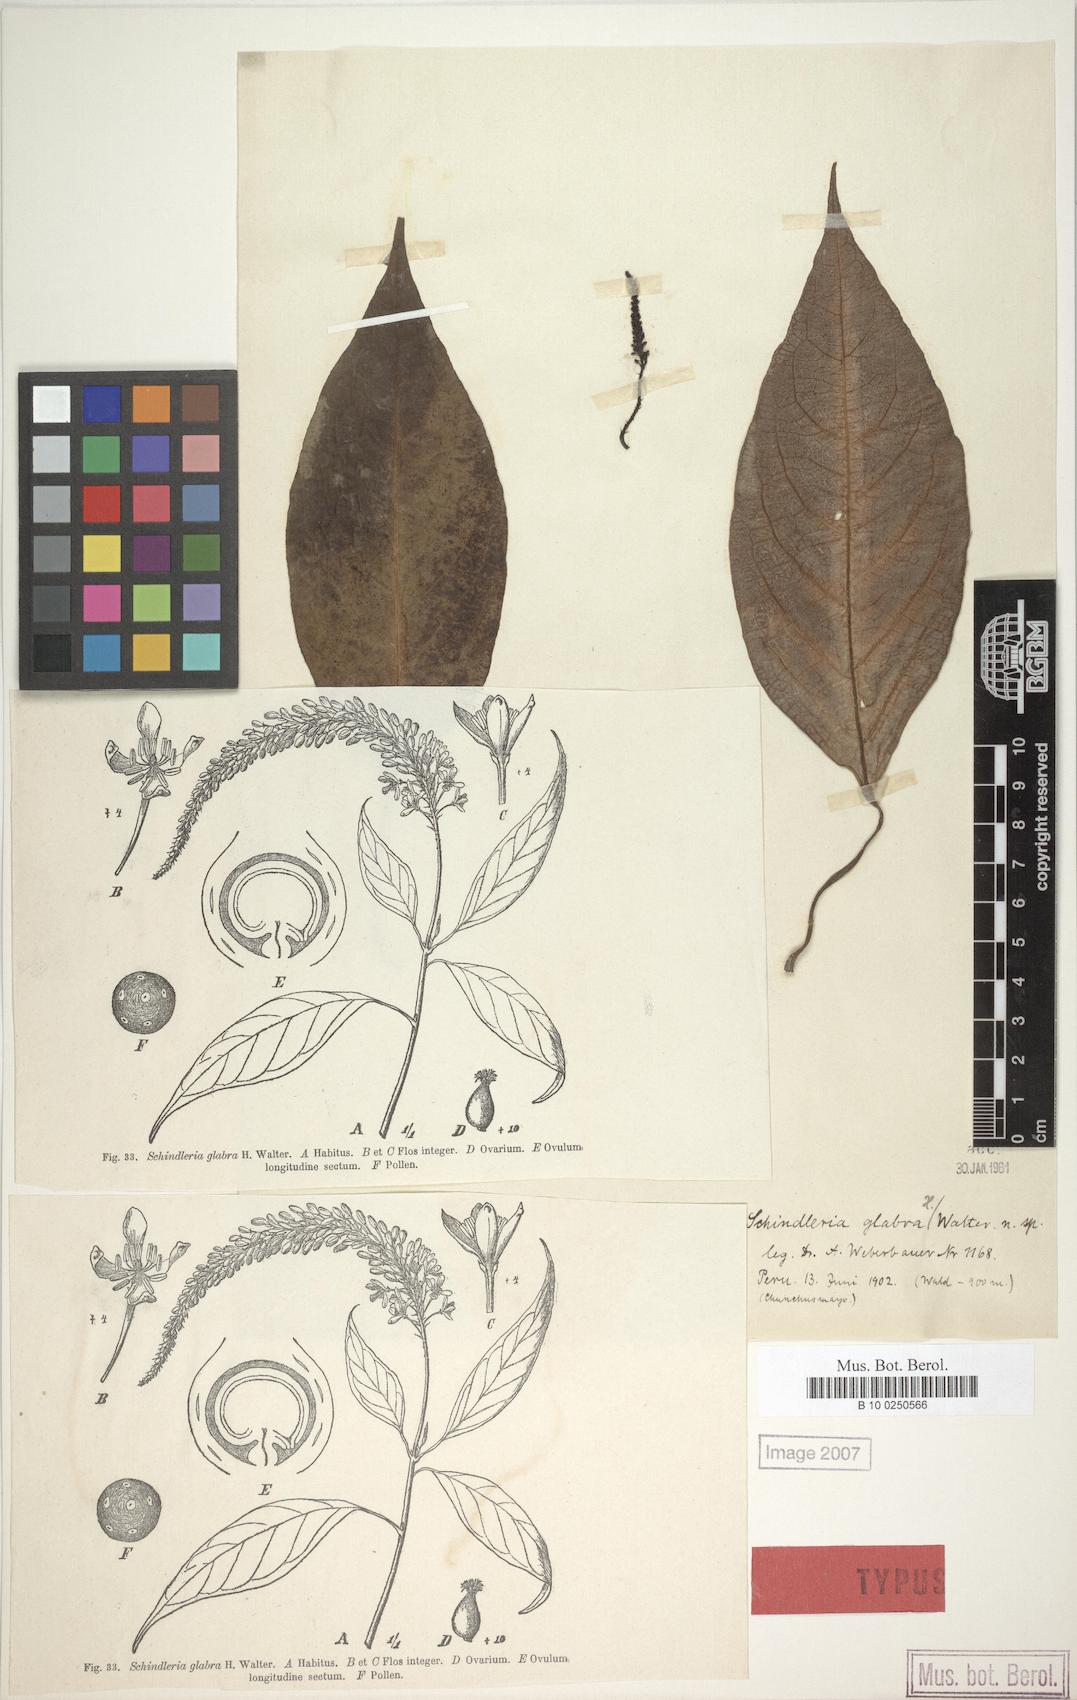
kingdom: Plantae
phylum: Tracheophyta
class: Magnoliopsida
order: Caryophyllales
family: Phytolaccaceae
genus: Schindleria
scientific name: Schindleria racemosa
